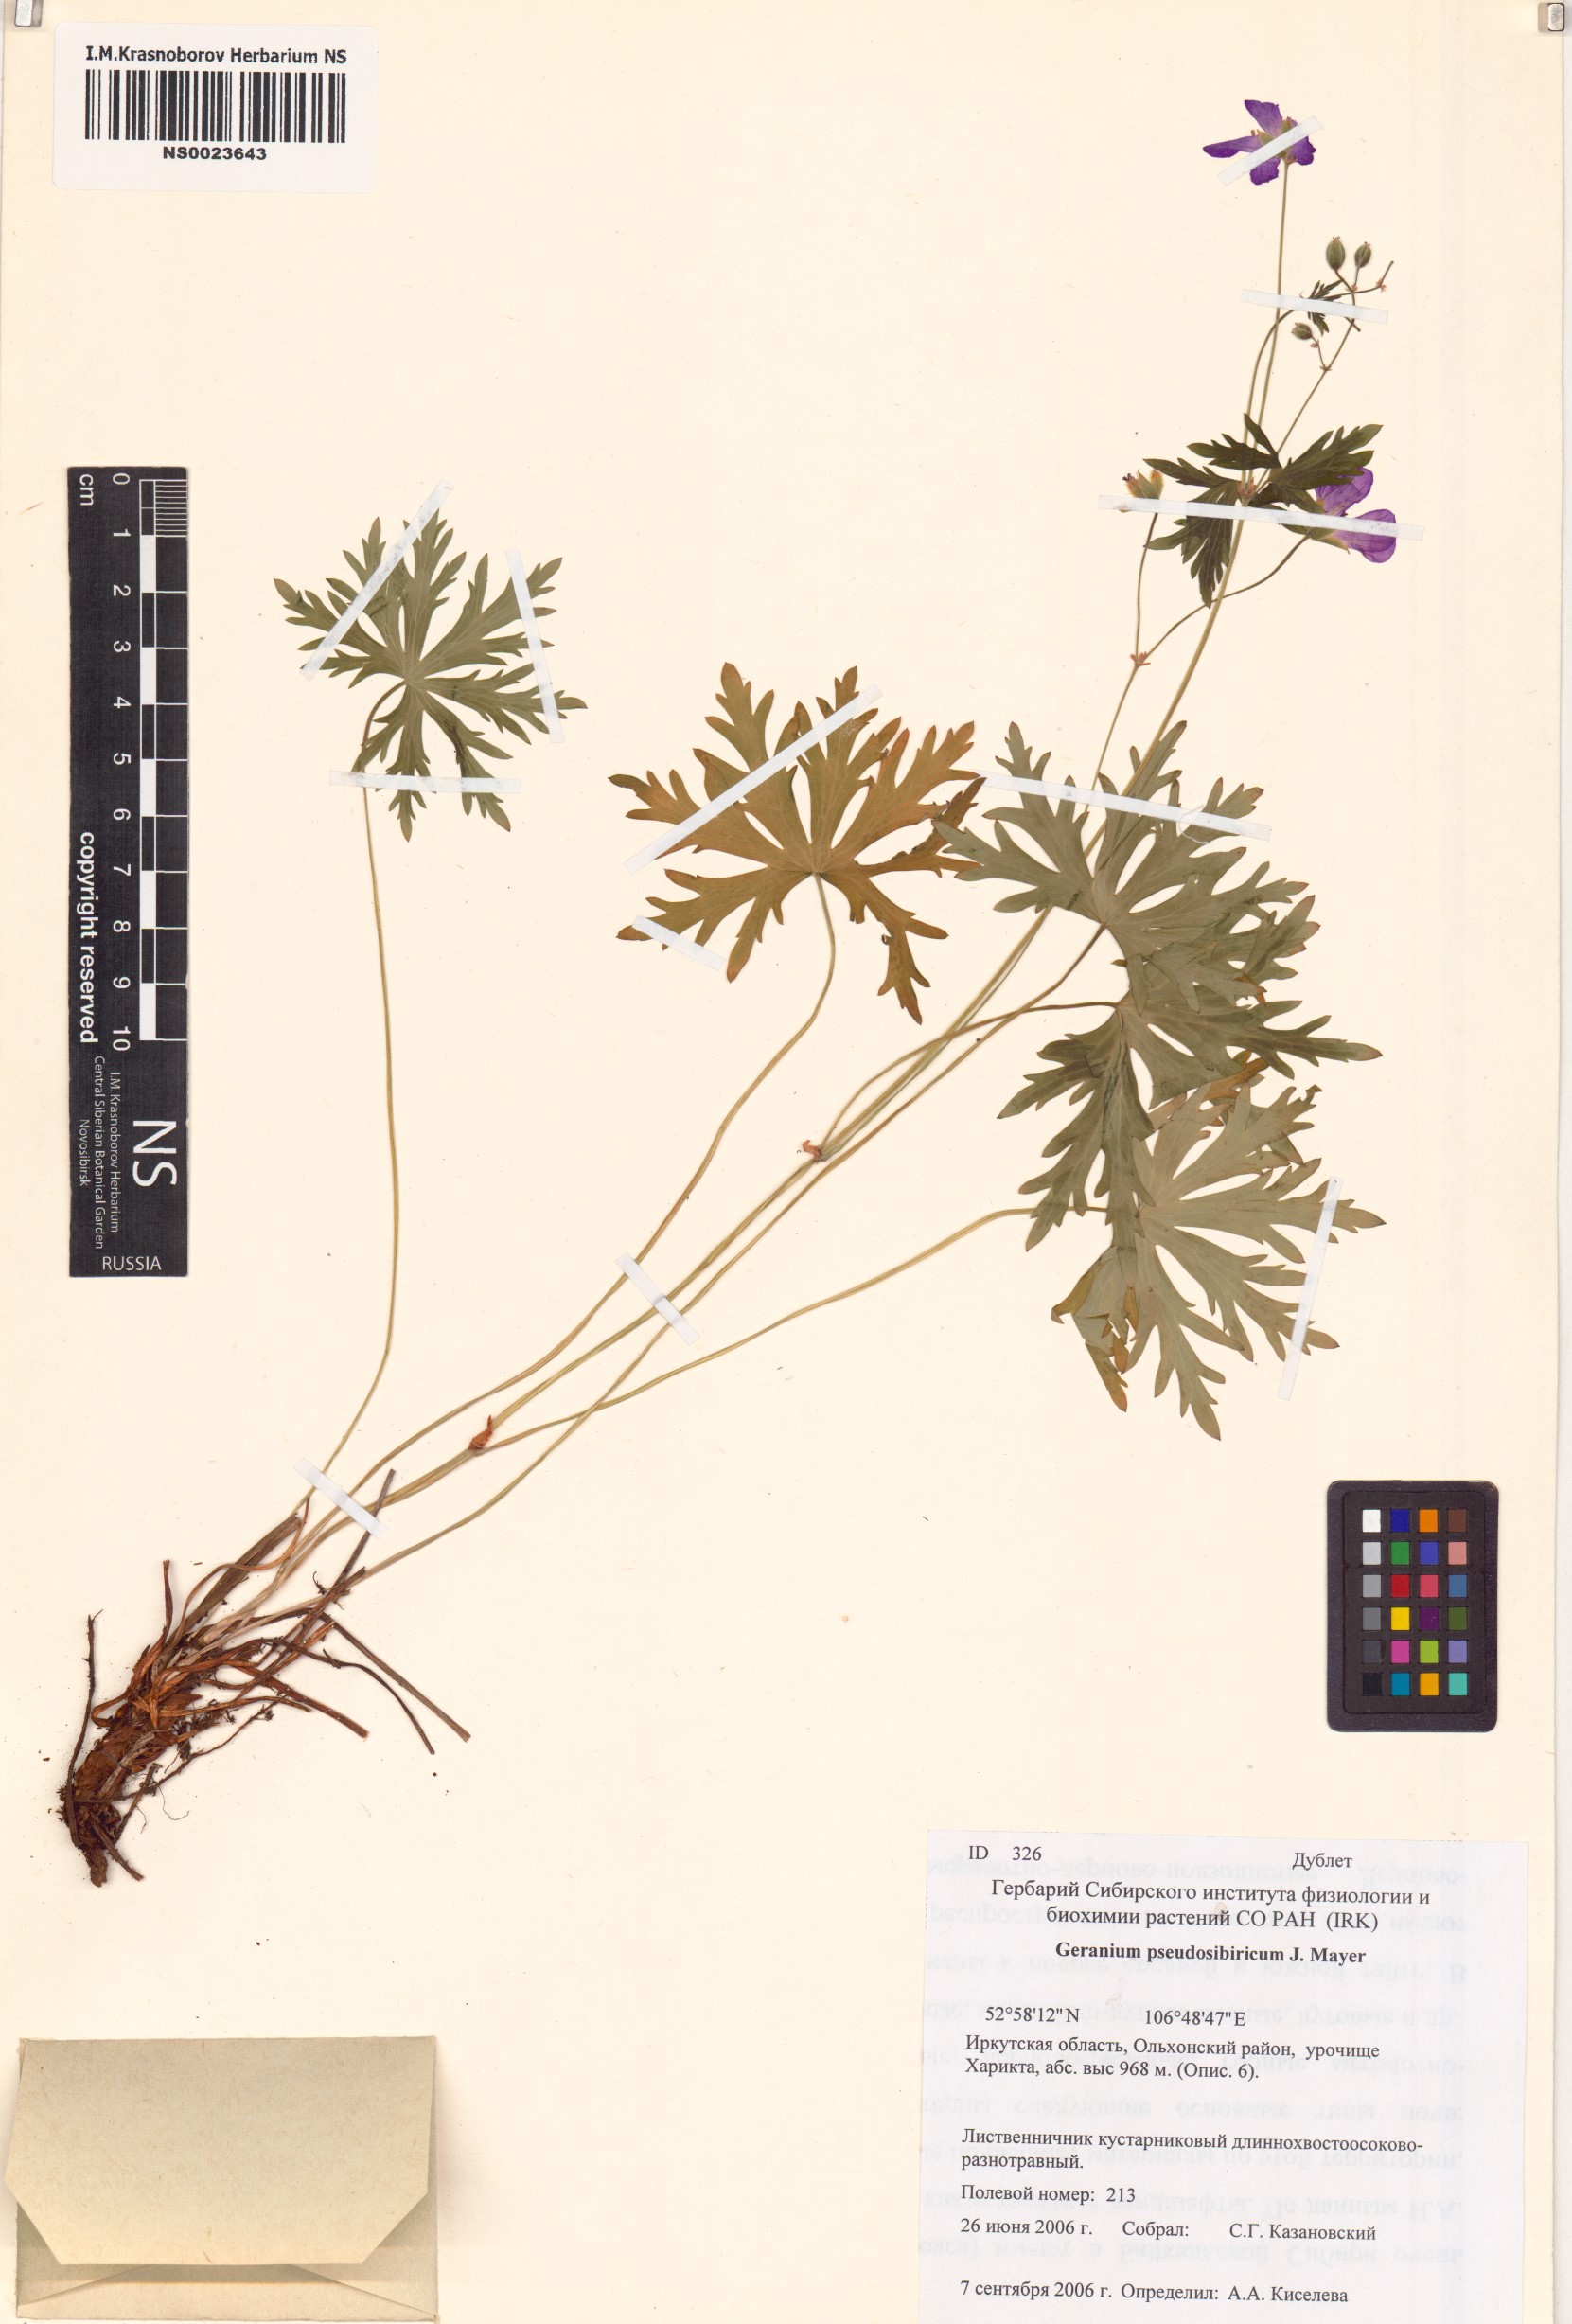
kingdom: Plantae
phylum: Tracheophyta
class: Magnoliopsida
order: Geraniales
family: Geraniaceae
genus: Geranium
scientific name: Geranium pseudosibiricum
